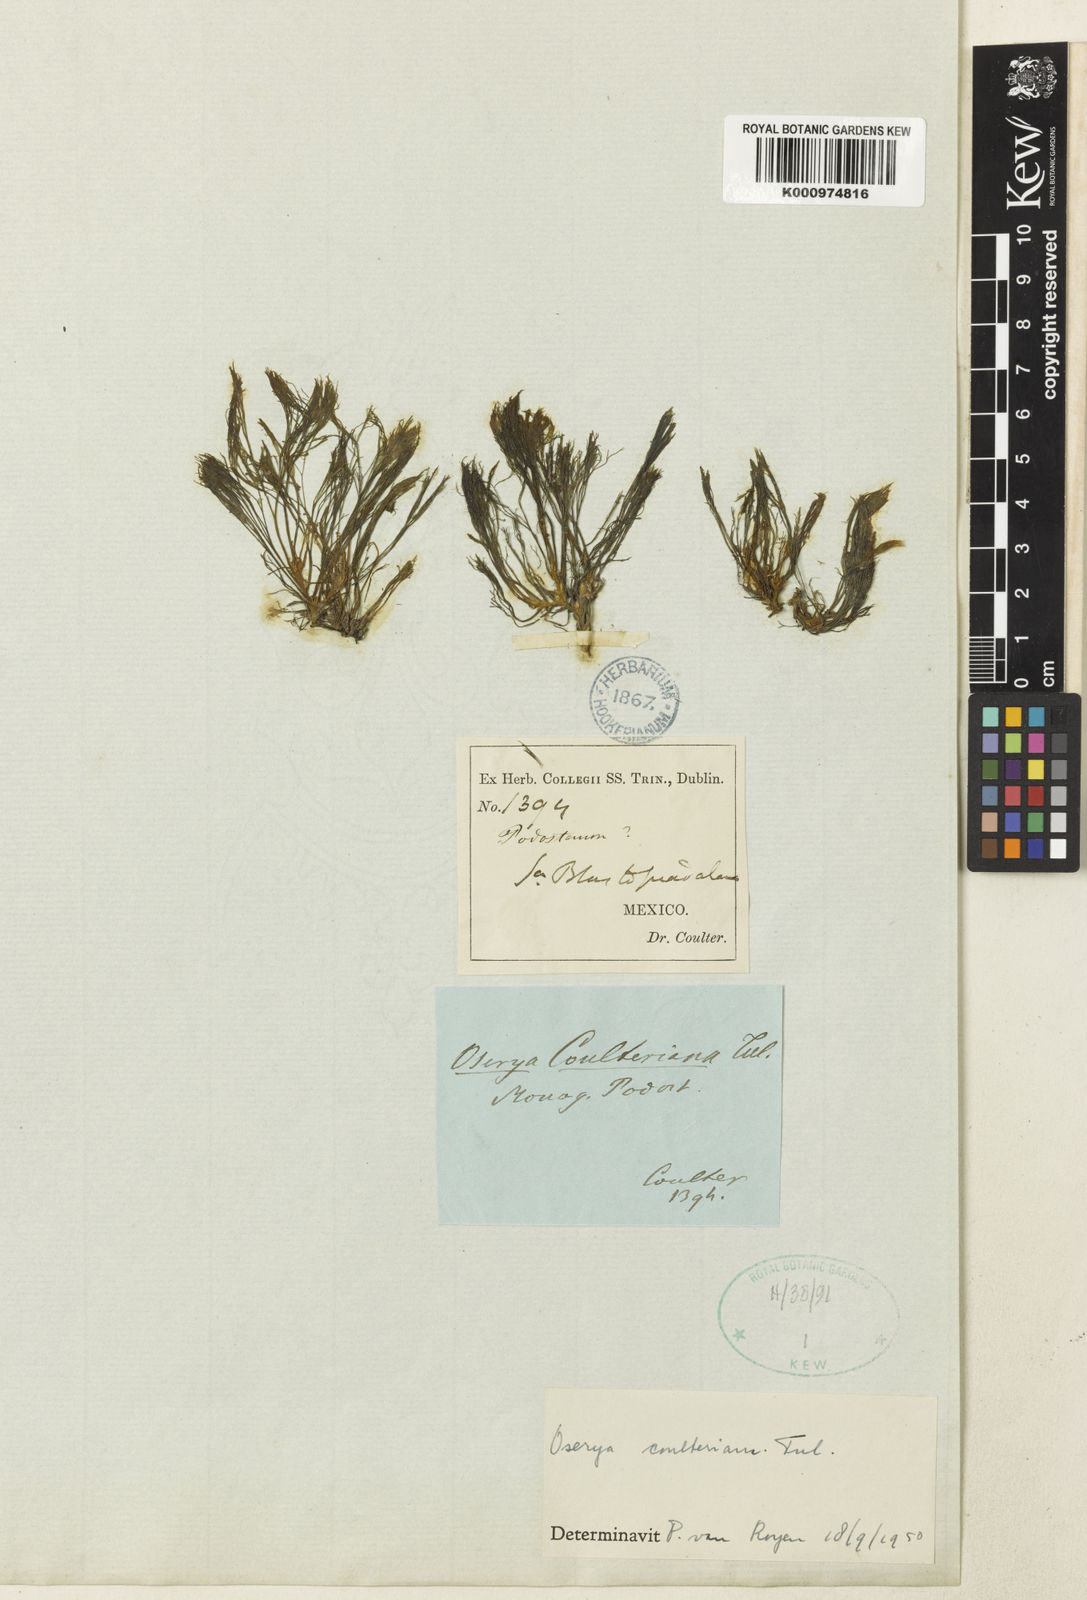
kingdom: Plantae
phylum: Tracheophyta
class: Magnoliopsida
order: Malpighiales
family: Podostemaceae
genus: Noveloa
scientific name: Noveloa coulteriana
